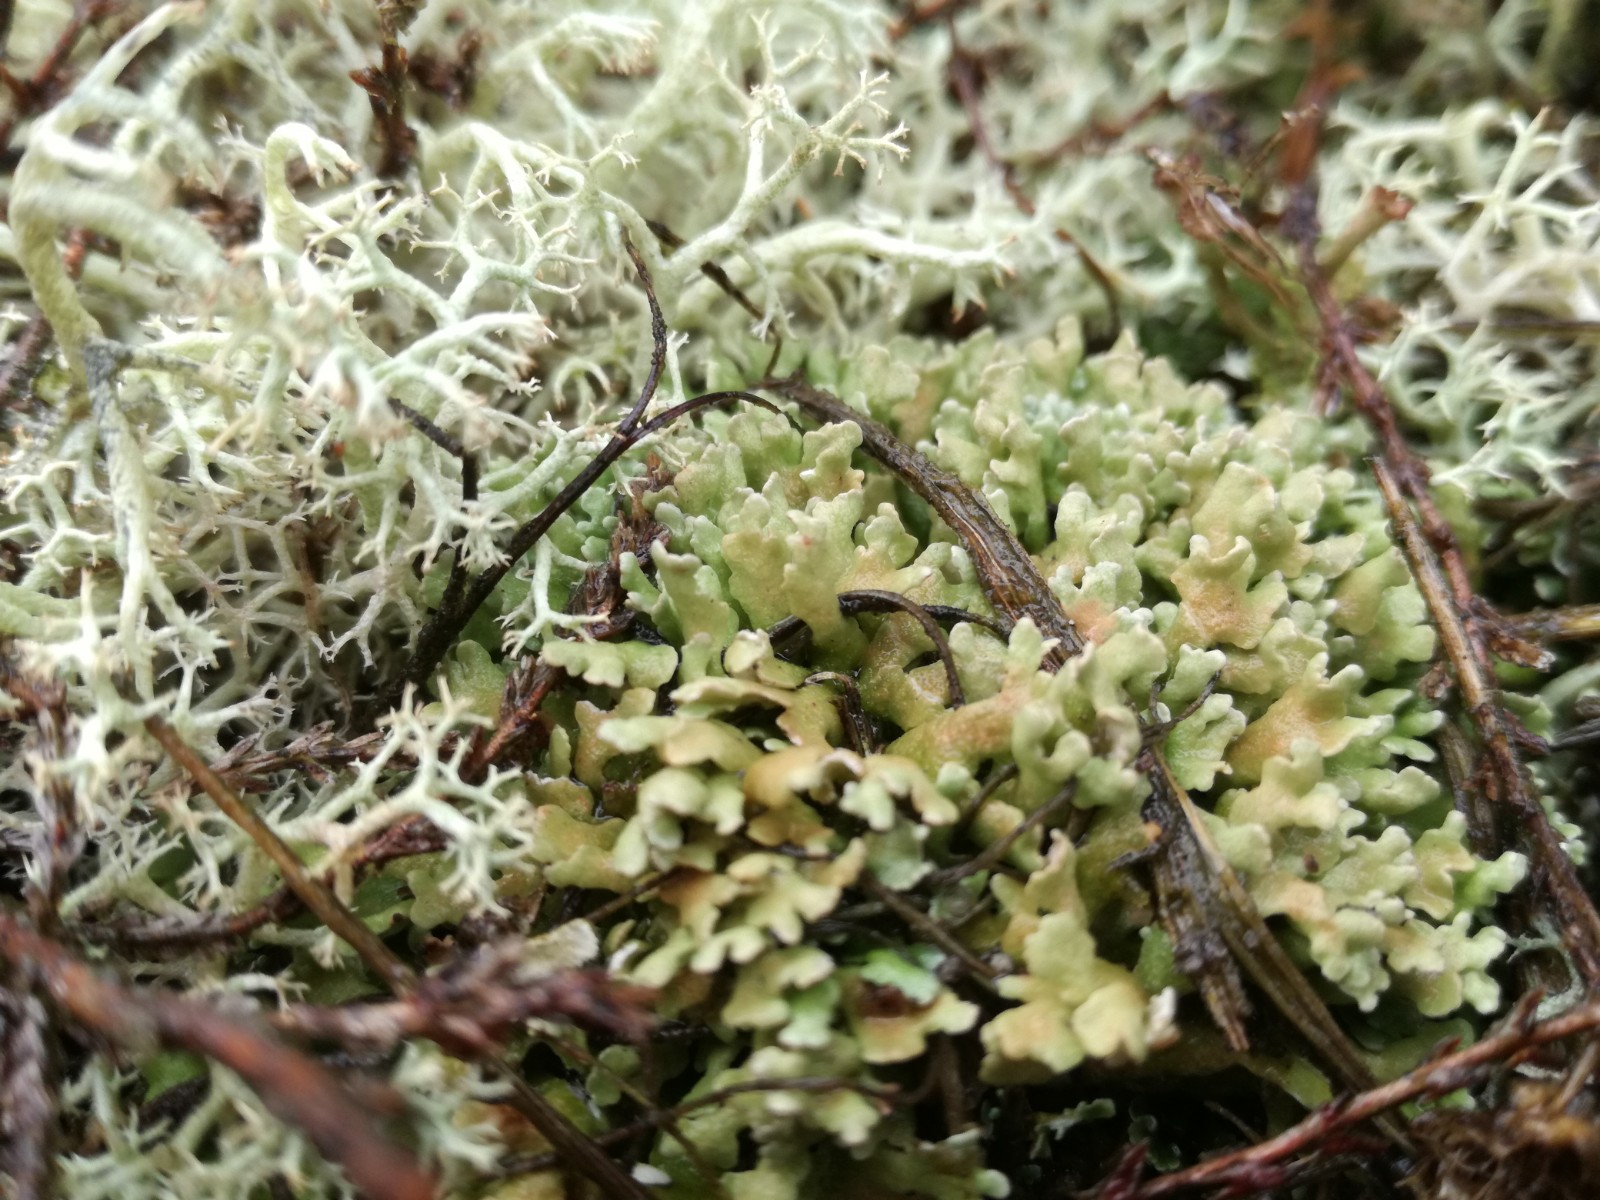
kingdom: Fungi
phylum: Ascomycota
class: Lecanoromycetes
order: Lecanorales
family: Cladoniaceae
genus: Cladonia
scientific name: Cladonia foliacea
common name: fliget bægerlav
